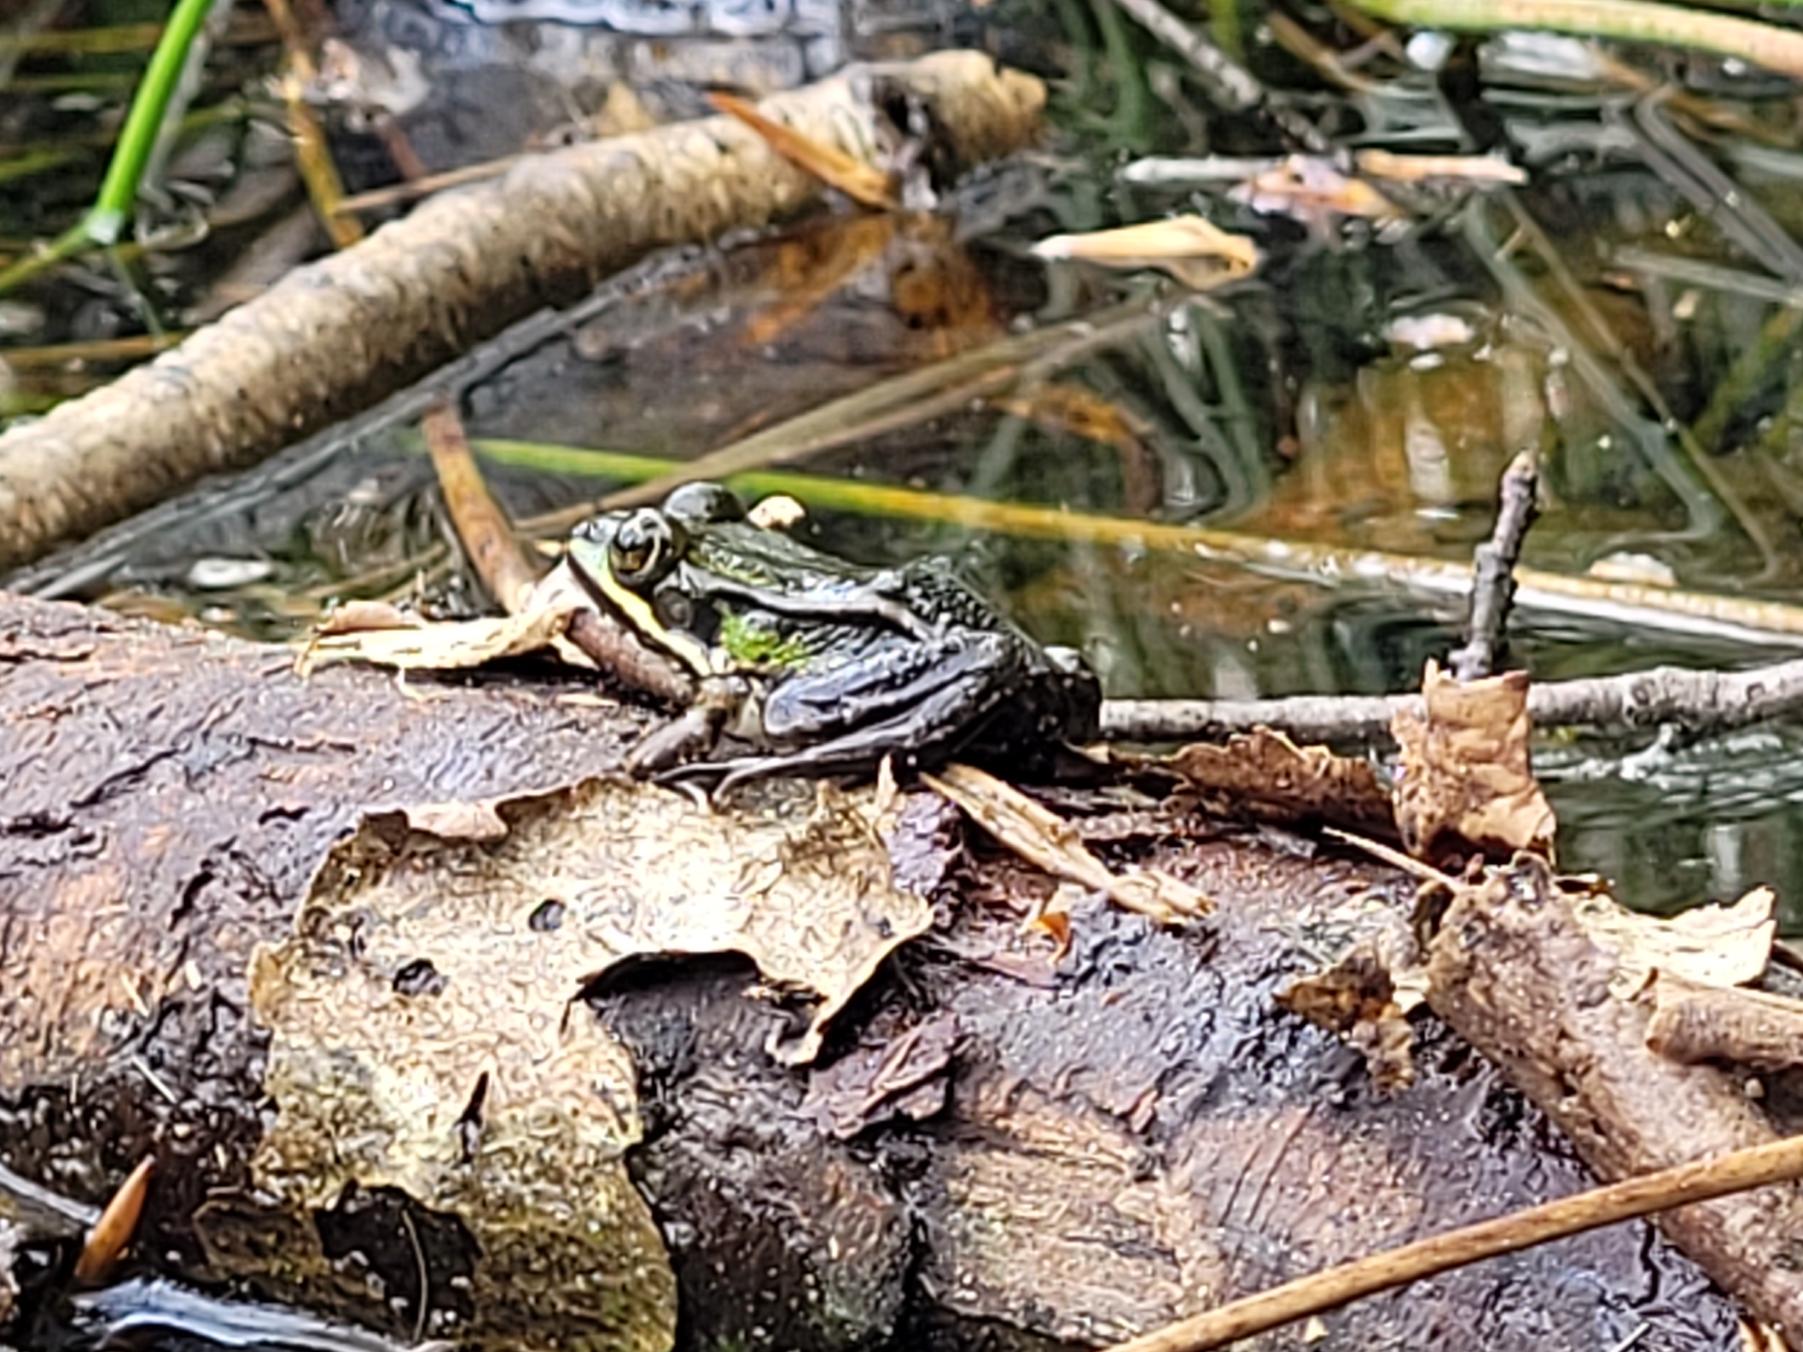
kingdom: Animalia
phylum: Chordata
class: Amphibia
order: Anura
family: Ranidae
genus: Pelophylax
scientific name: Pelophylax lessonae
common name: Grøn frø
